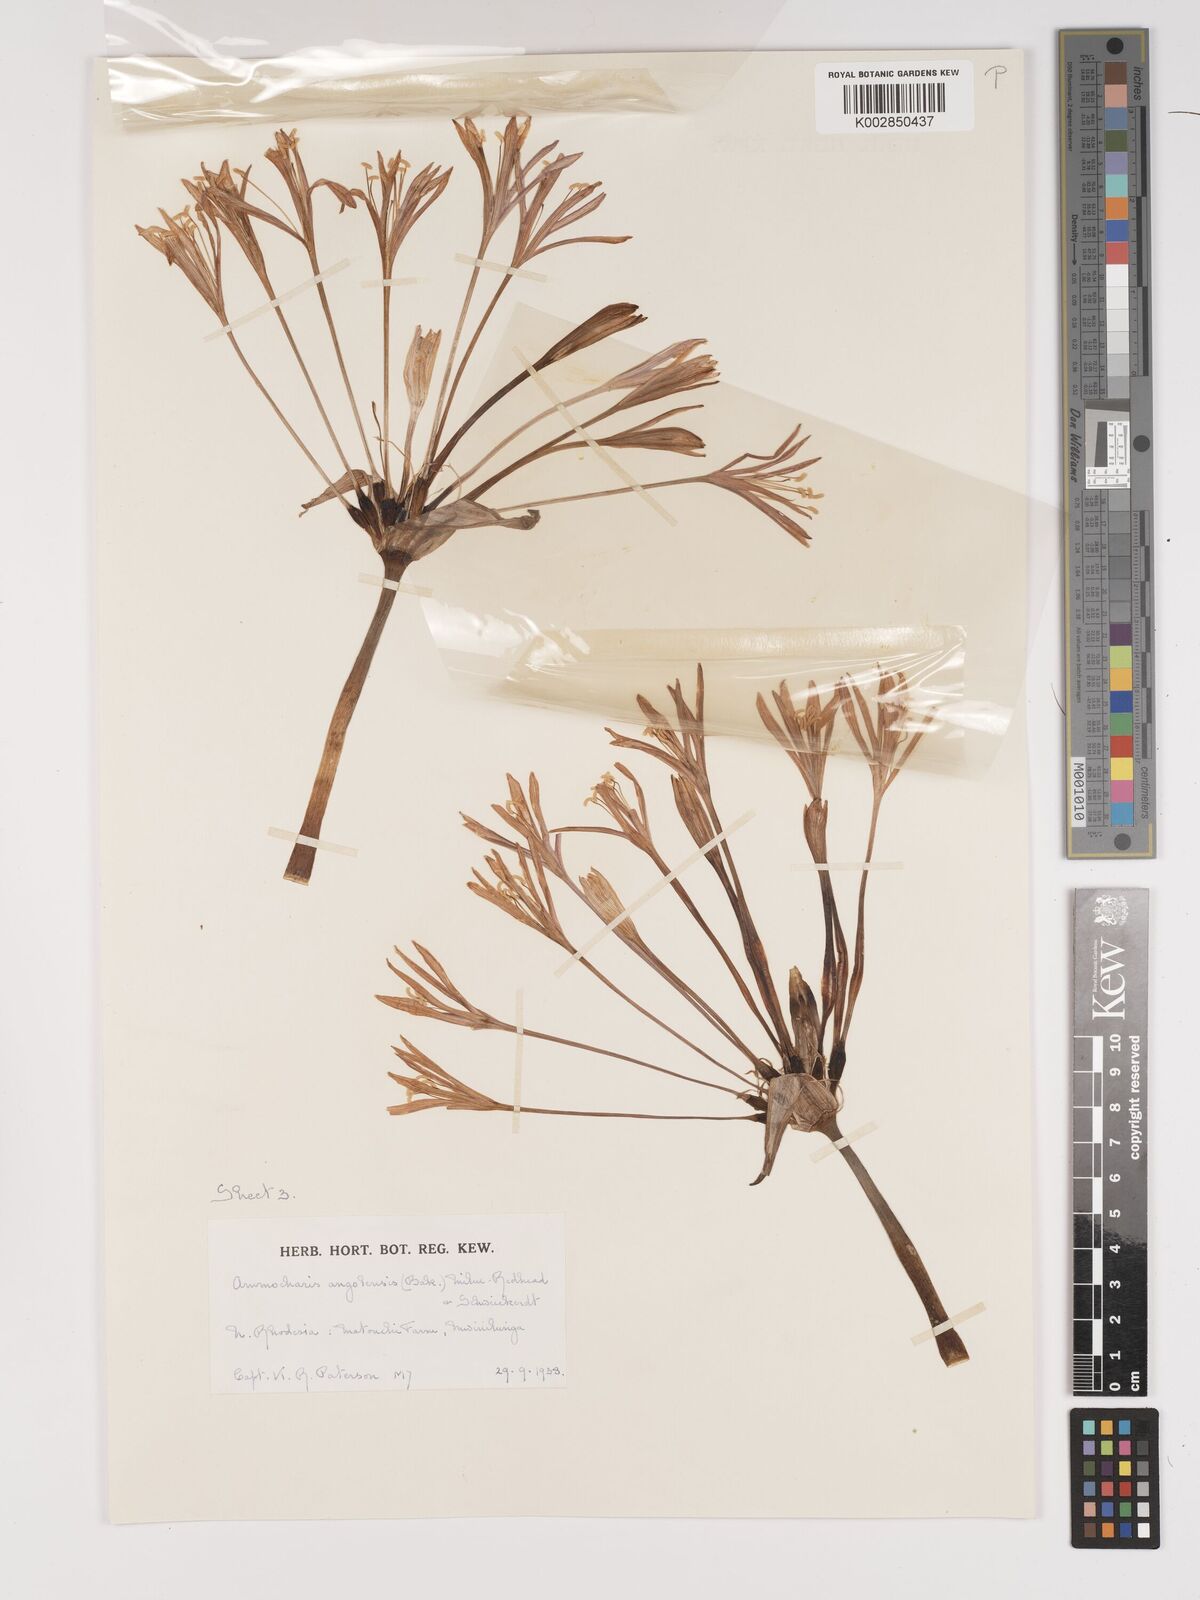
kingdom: Plantae
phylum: Tracheophyta
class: Liliopsida
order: Asparagales
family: Amaryllidaceae
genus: Ammocharis
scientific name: Ammocharis angolensis
